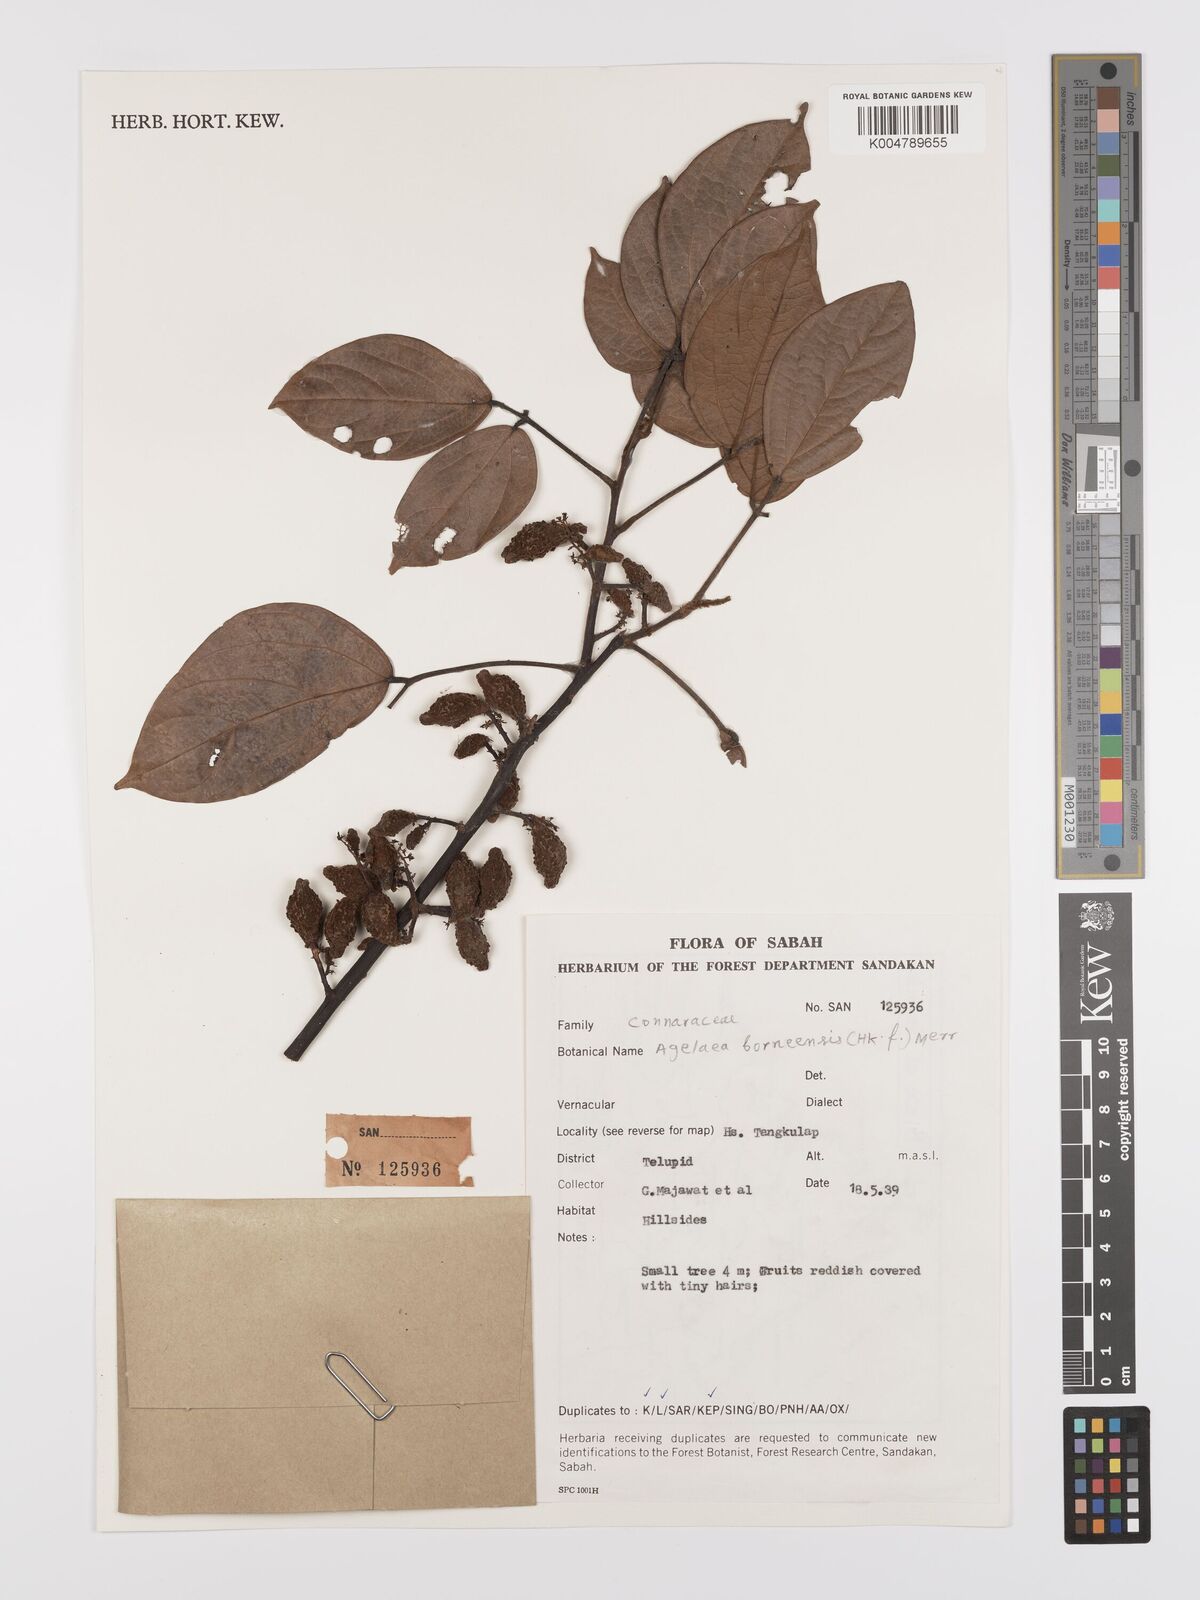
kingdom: Plantae
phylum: Tracheophyta
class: Magnoliopsida
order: Oxalidales
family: Connaraceae
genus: Agelaea
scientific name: Agelaea borneensis
